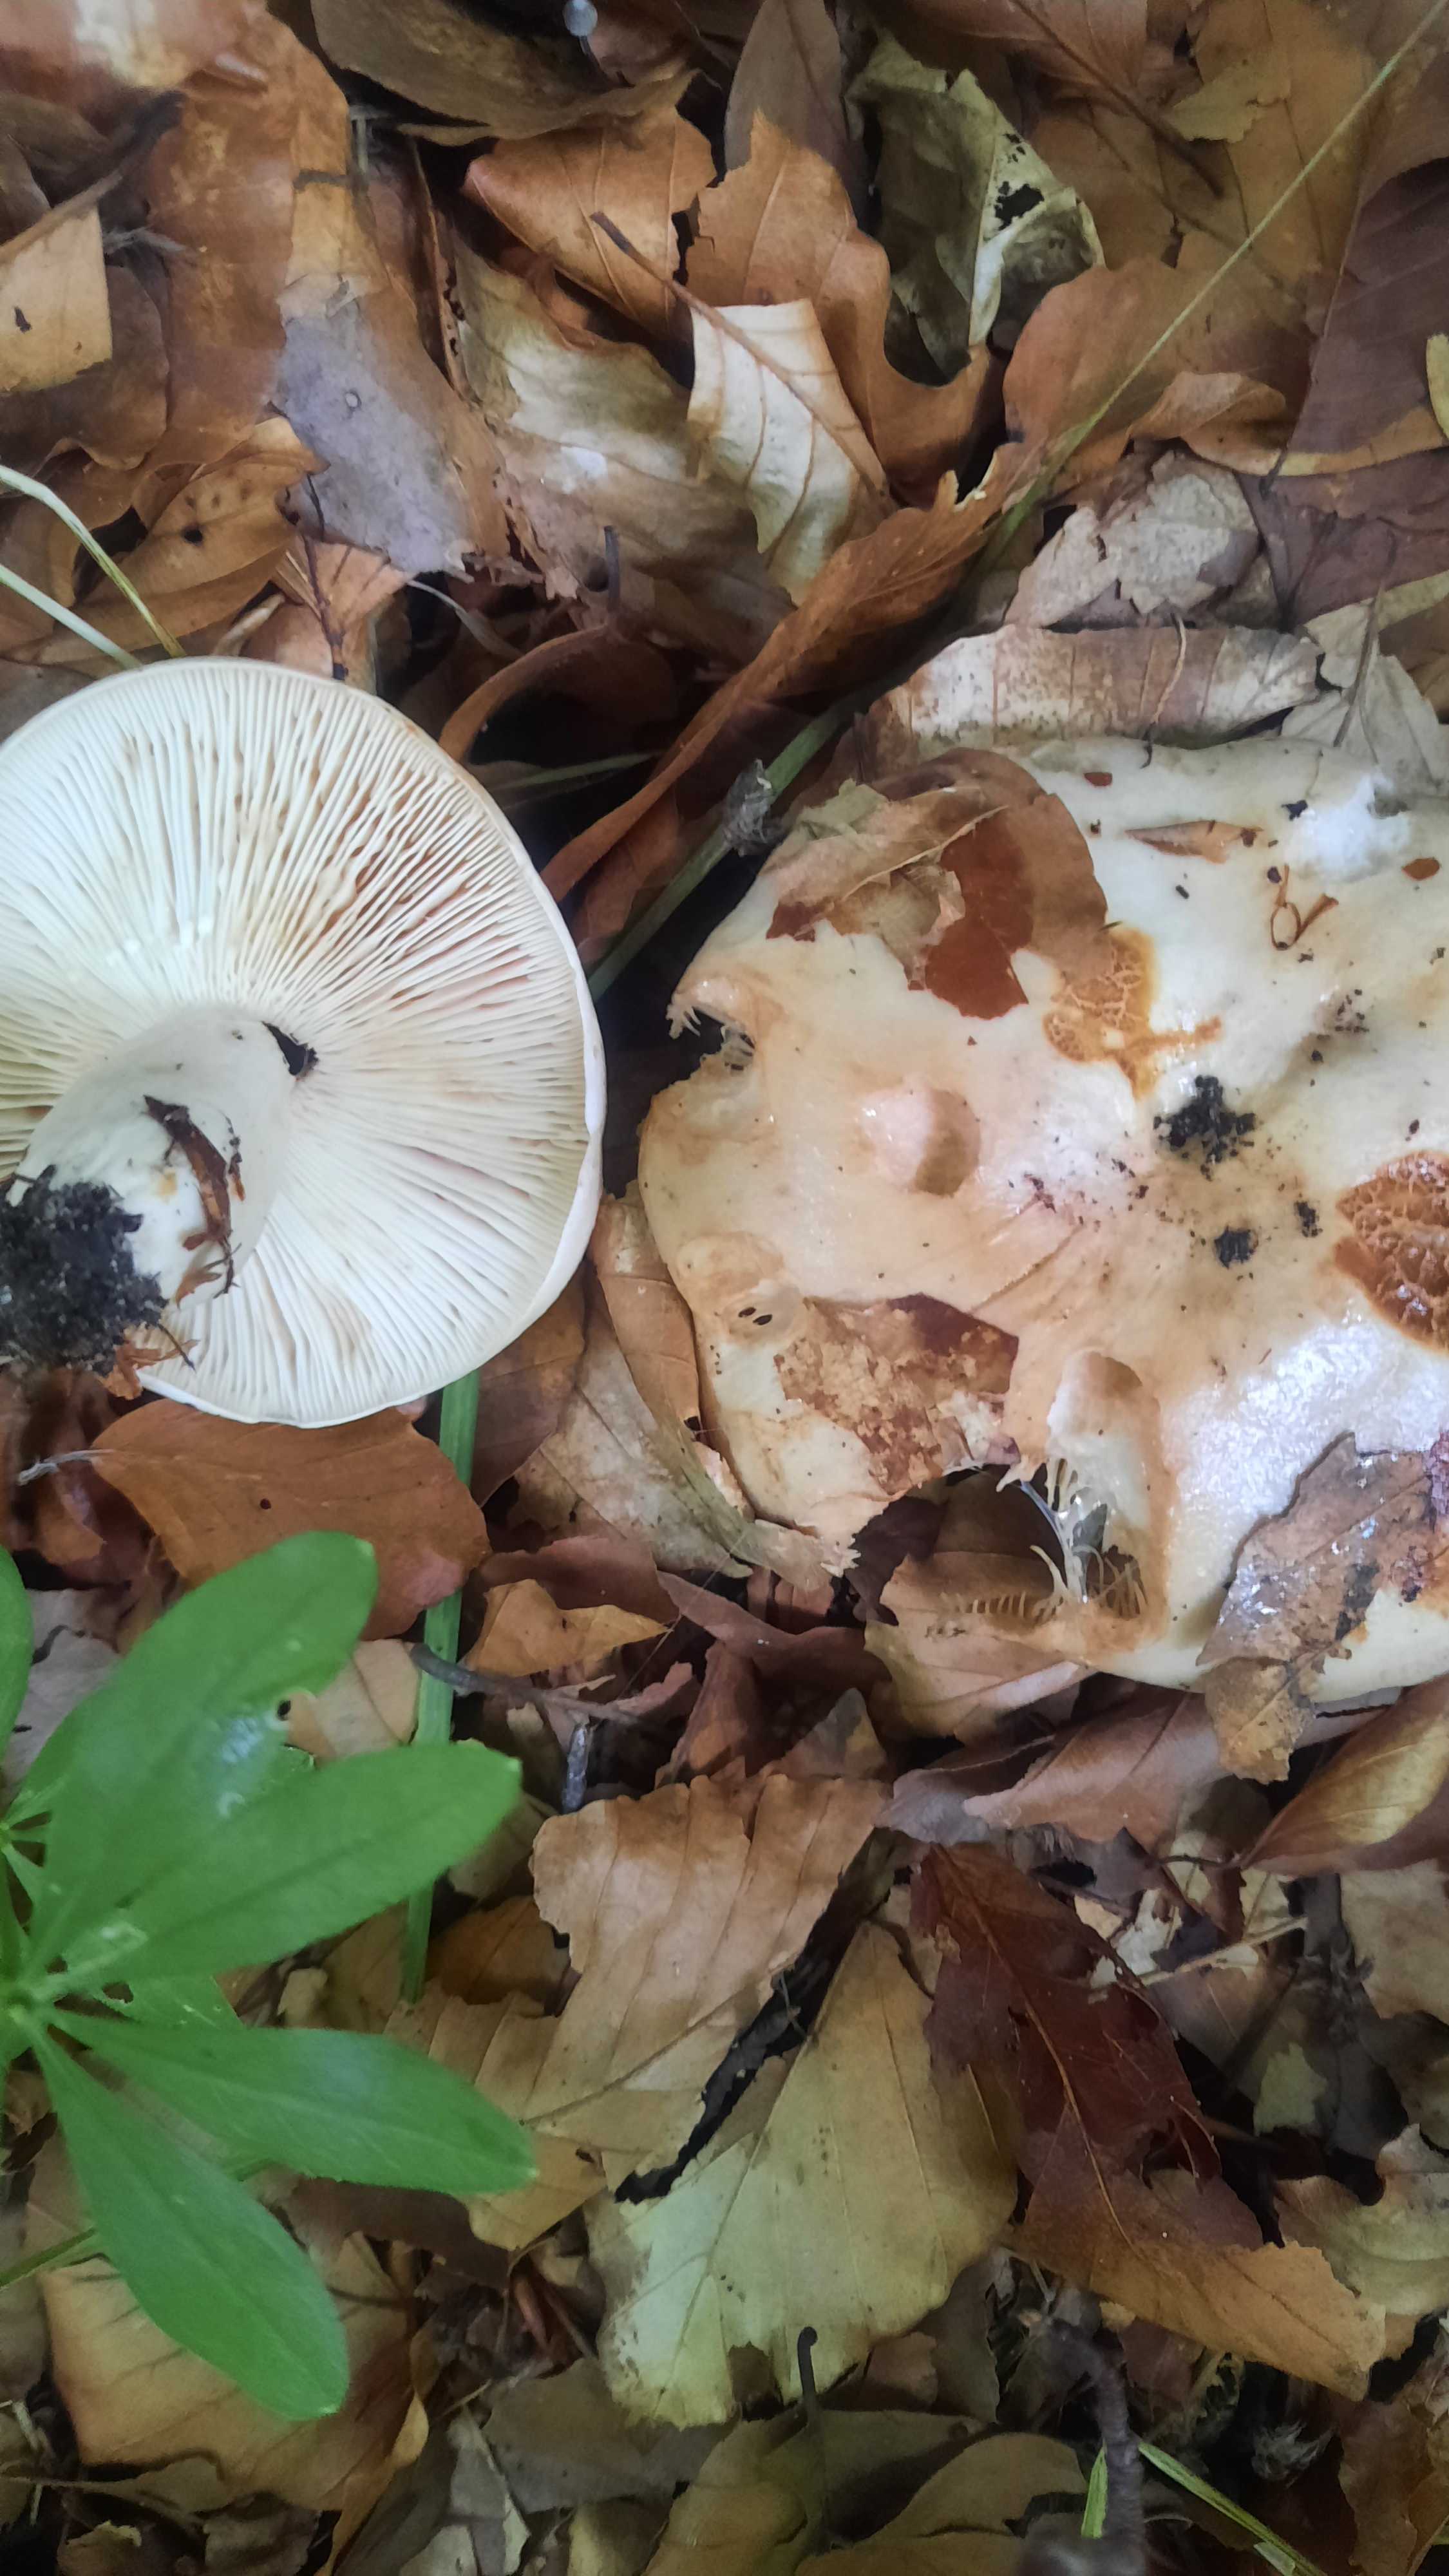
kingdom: Fungi
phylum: Basidiomycota
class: Agaricomycetes
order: Russulales
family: Russulaceae
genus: Lactarius
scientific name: Lactarius pallidus
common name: bleg mælkehat
